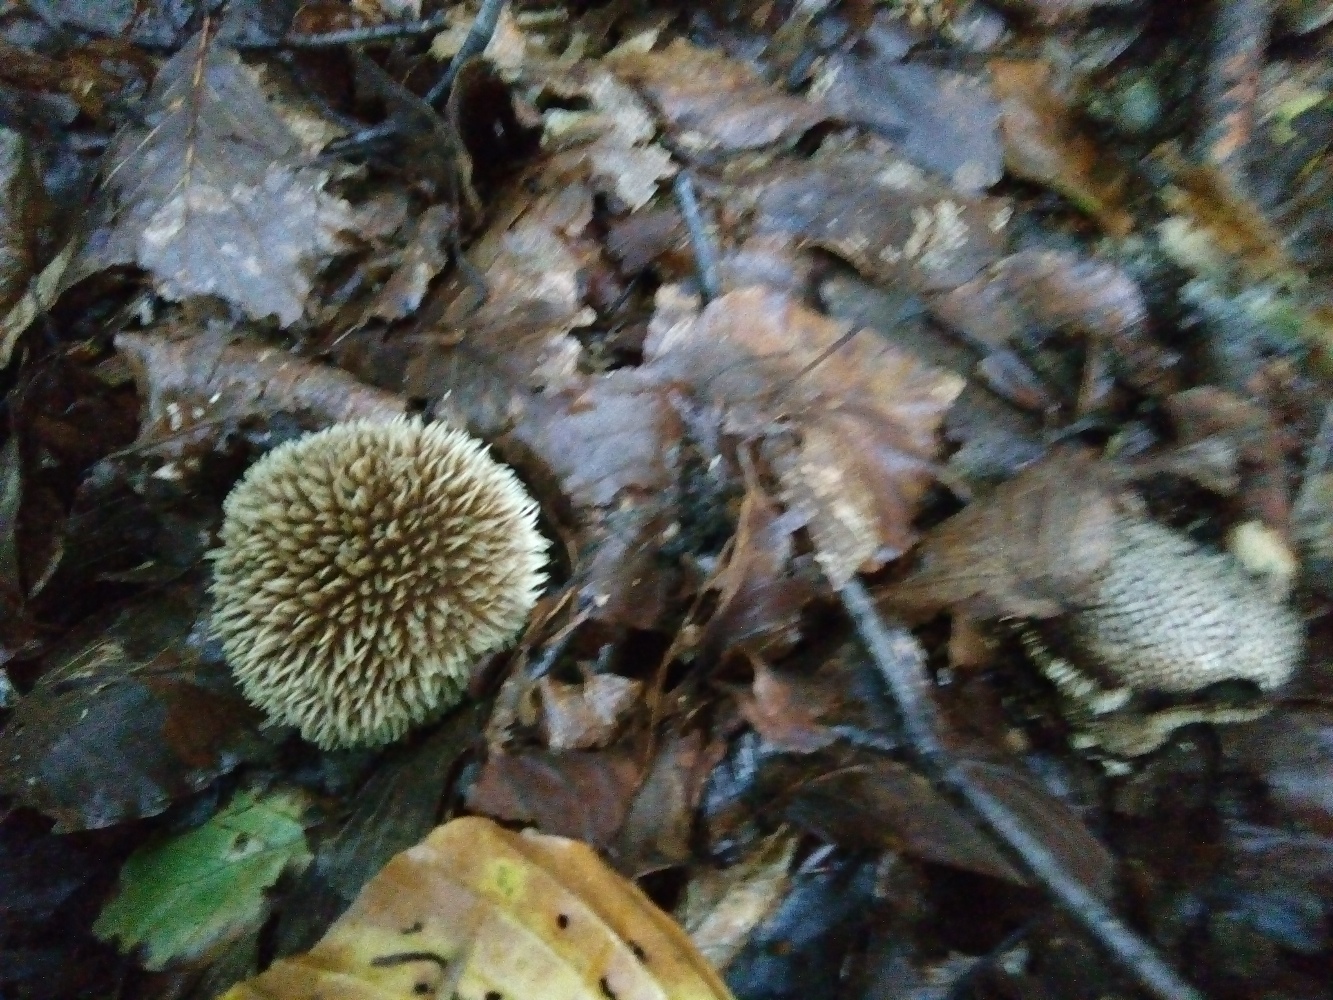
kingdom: Fungi
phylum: Basidiomycota
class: Agaricomycetes
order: Agaricales
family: Lycoperdaceae
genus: Lycoperdon
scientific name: Lycoperdon echinatum
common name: pindsvine-støvbold
